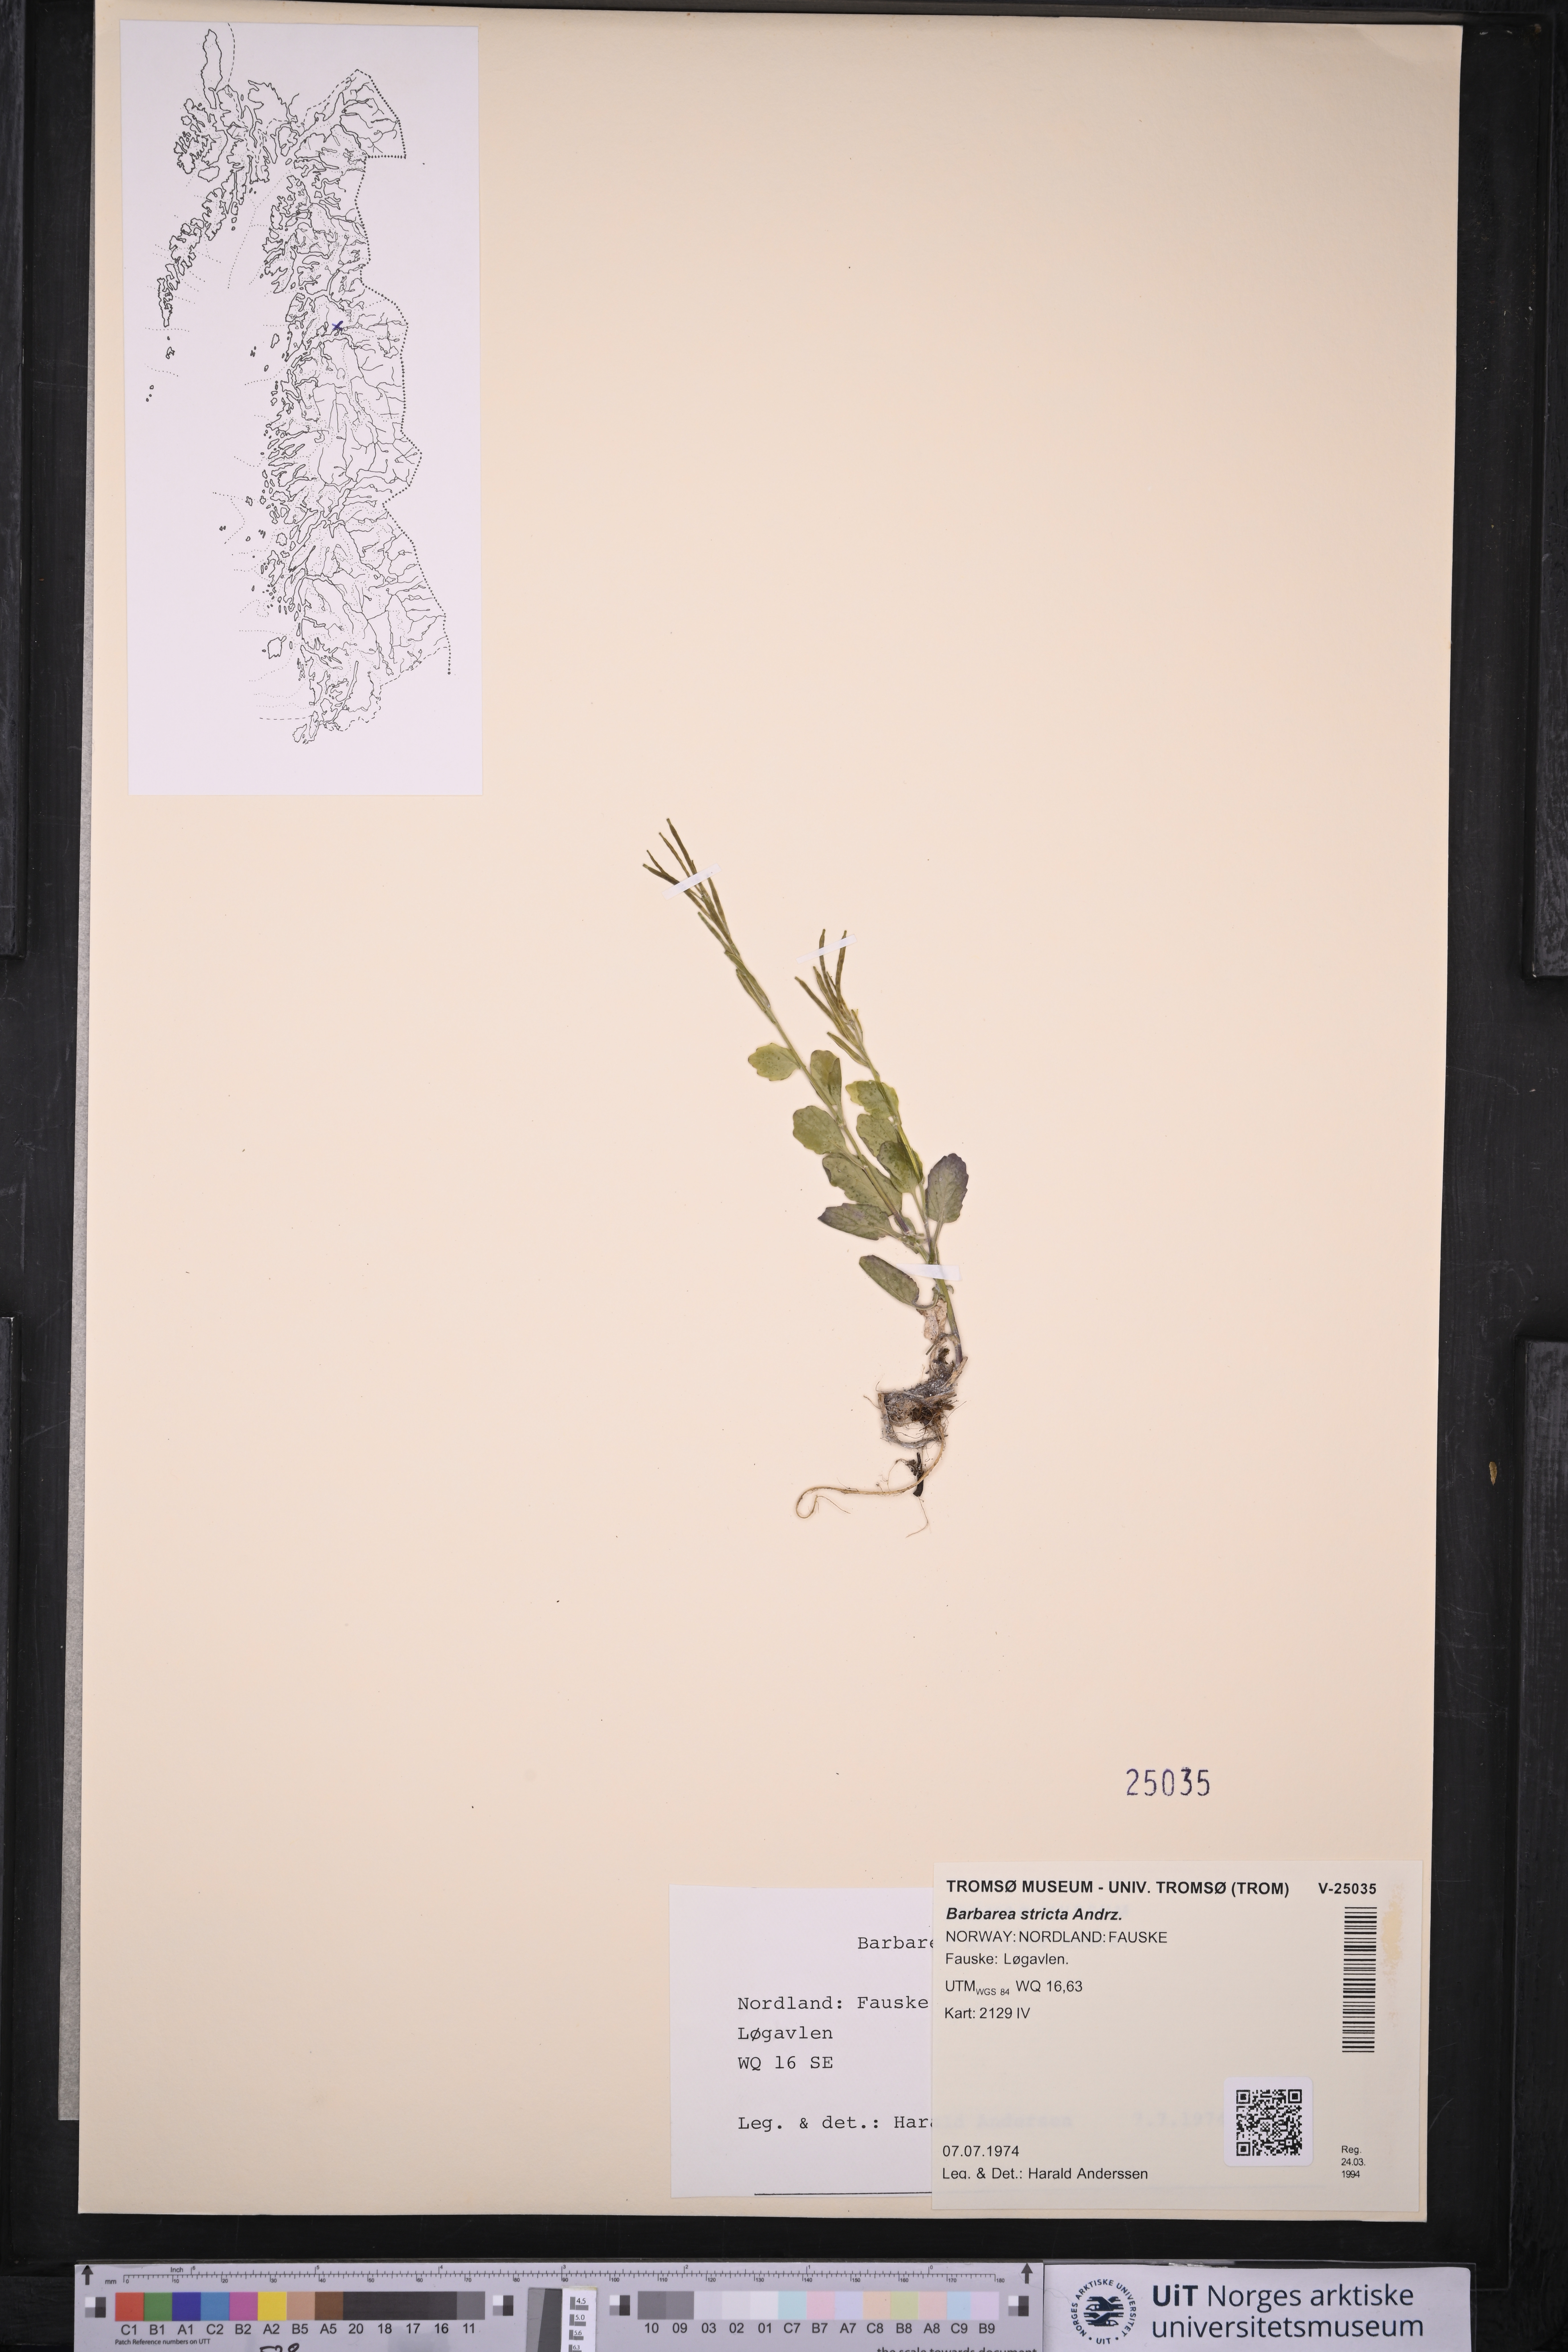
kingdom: Plantae
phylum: Tracheophyta
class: Magnoliopsida
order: Brassicales
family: Brassicaceae
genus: Barbarea
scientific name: Barbarea stricta
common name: Small-flowered winter-cress
